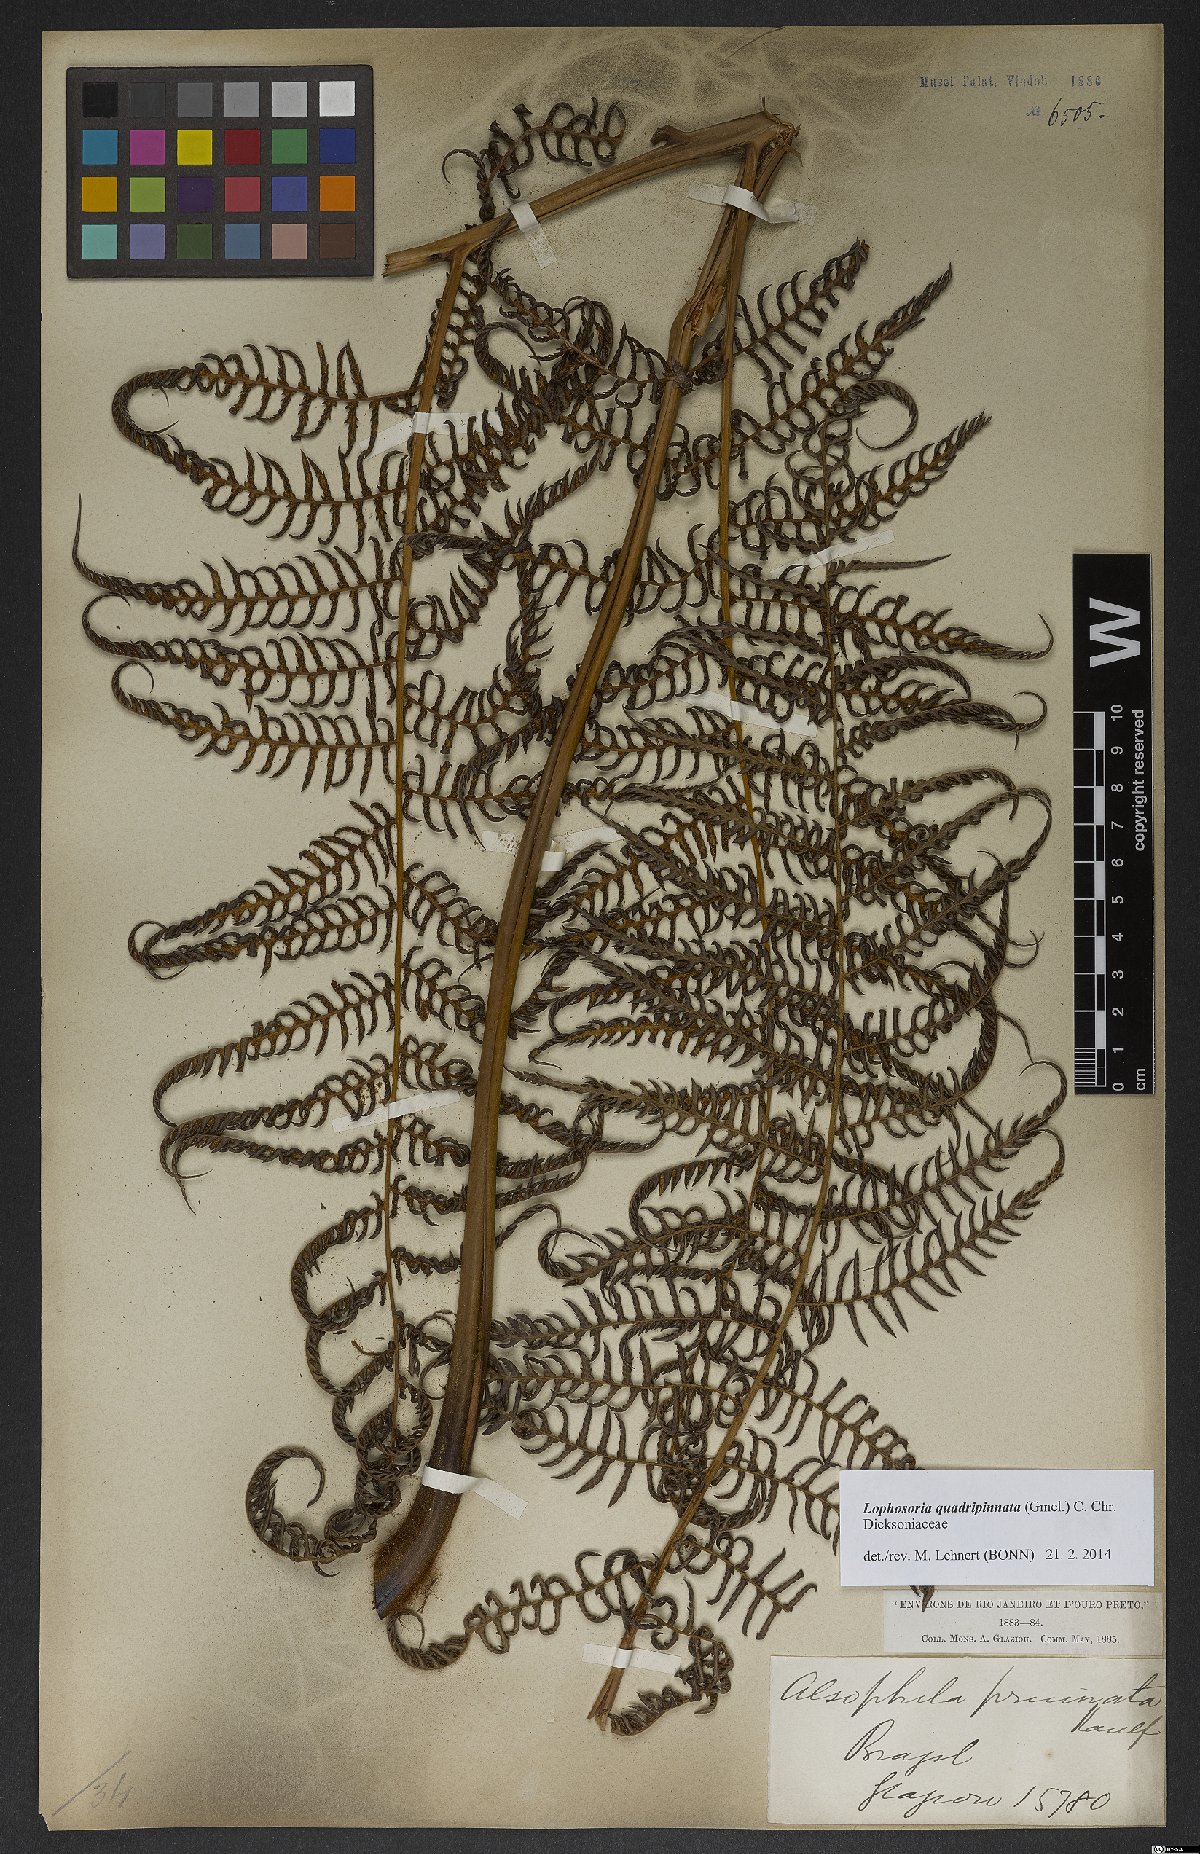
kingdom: Plantae
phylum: Tracheophyta
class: Polypodiopsida
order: Cyatheales
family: Dicksoniaceae
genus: Lophosoria
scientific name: Lophosoria quadripinnata
